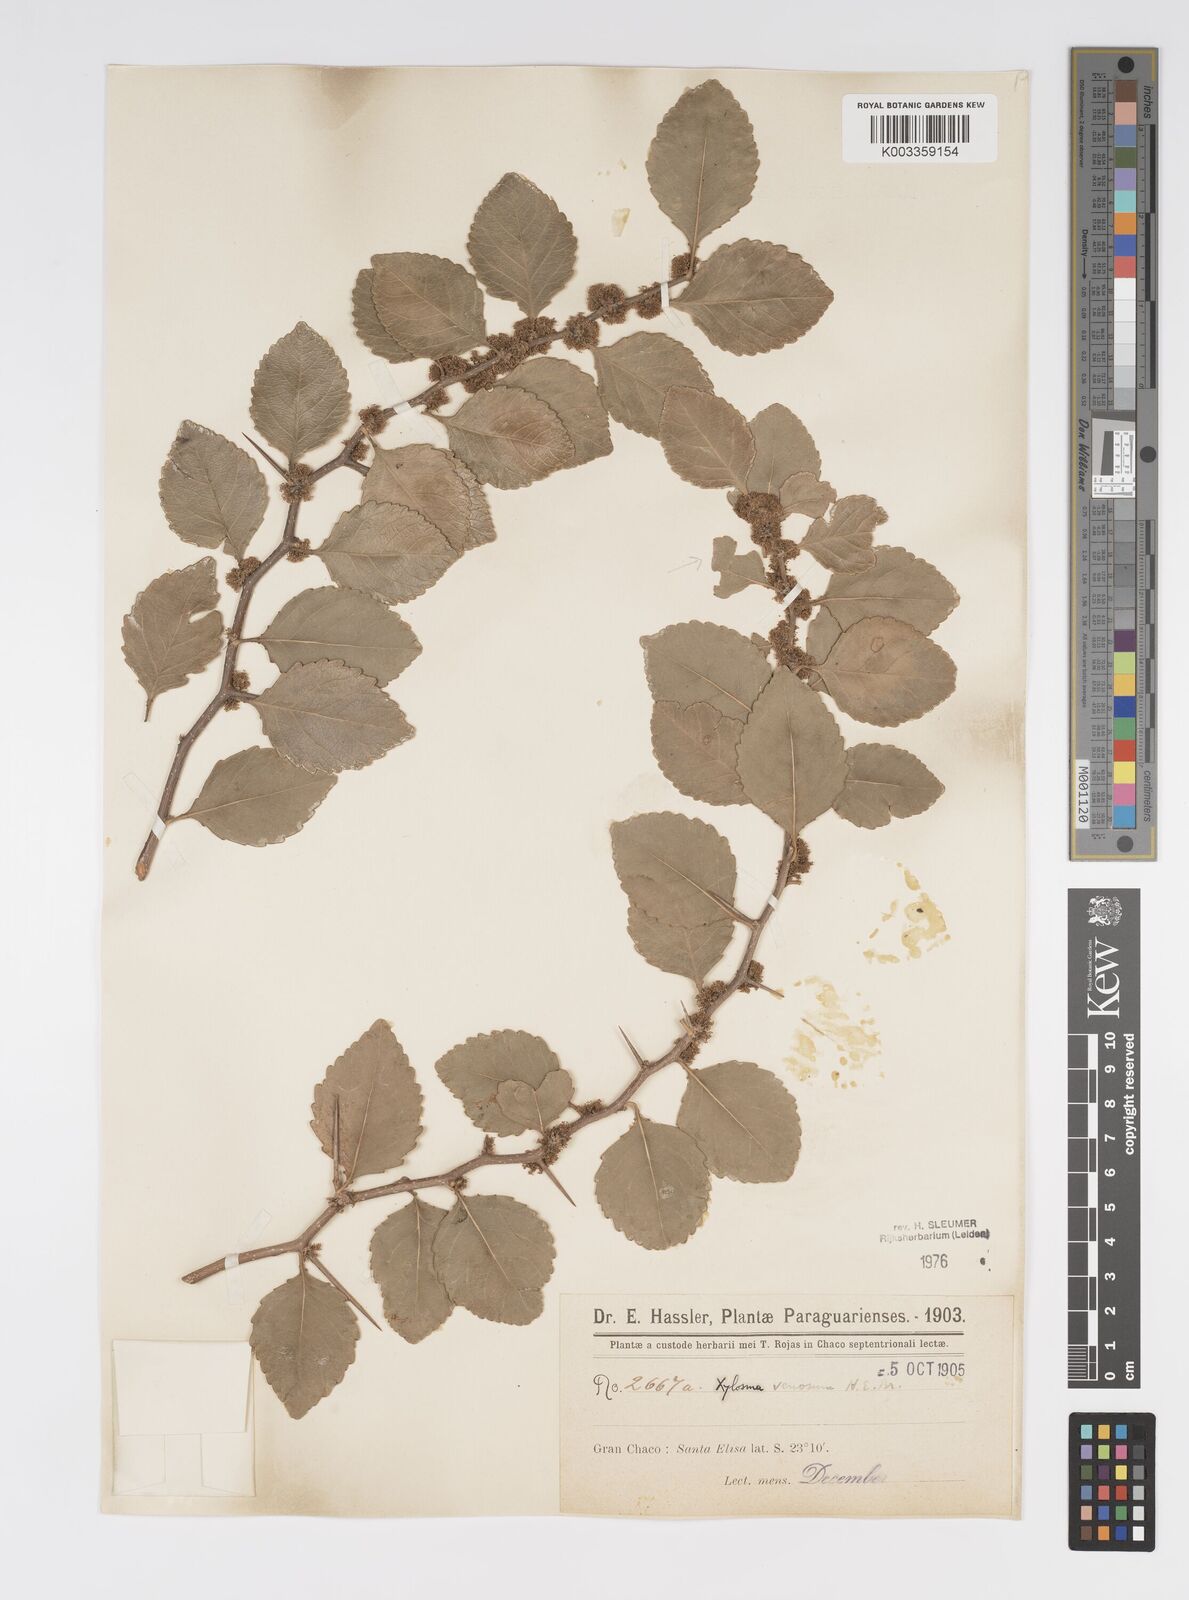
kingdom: Plantae
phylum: Tracheophyta
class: Magnoliopsida
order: Malpighiales
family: Salicaceae
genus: Xylosma
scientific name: Xylosma venosa
